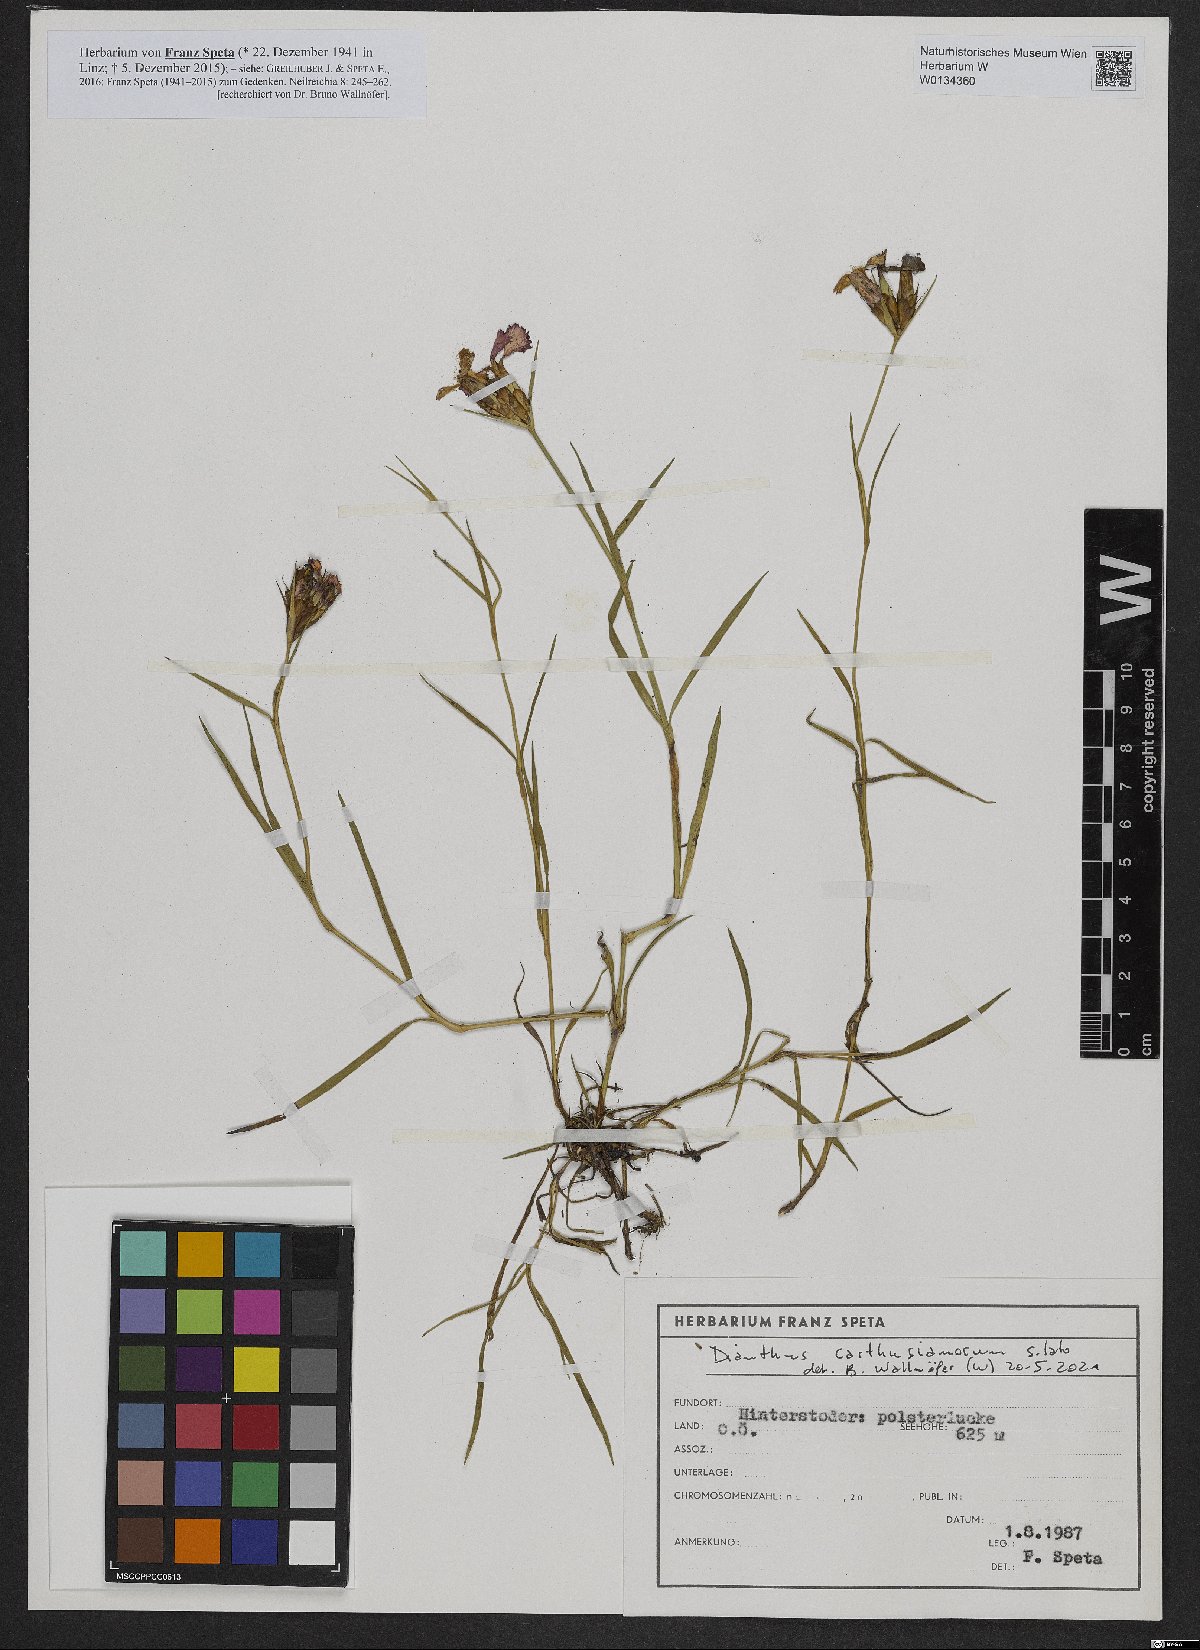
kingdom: Plantae
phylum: Tracheophyta
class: Magnoliopsida
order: Caryophyllales
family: Caryophyllaceae
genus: Dianthus
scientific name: Dianthus carthusianorum
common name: Carthusian pink
